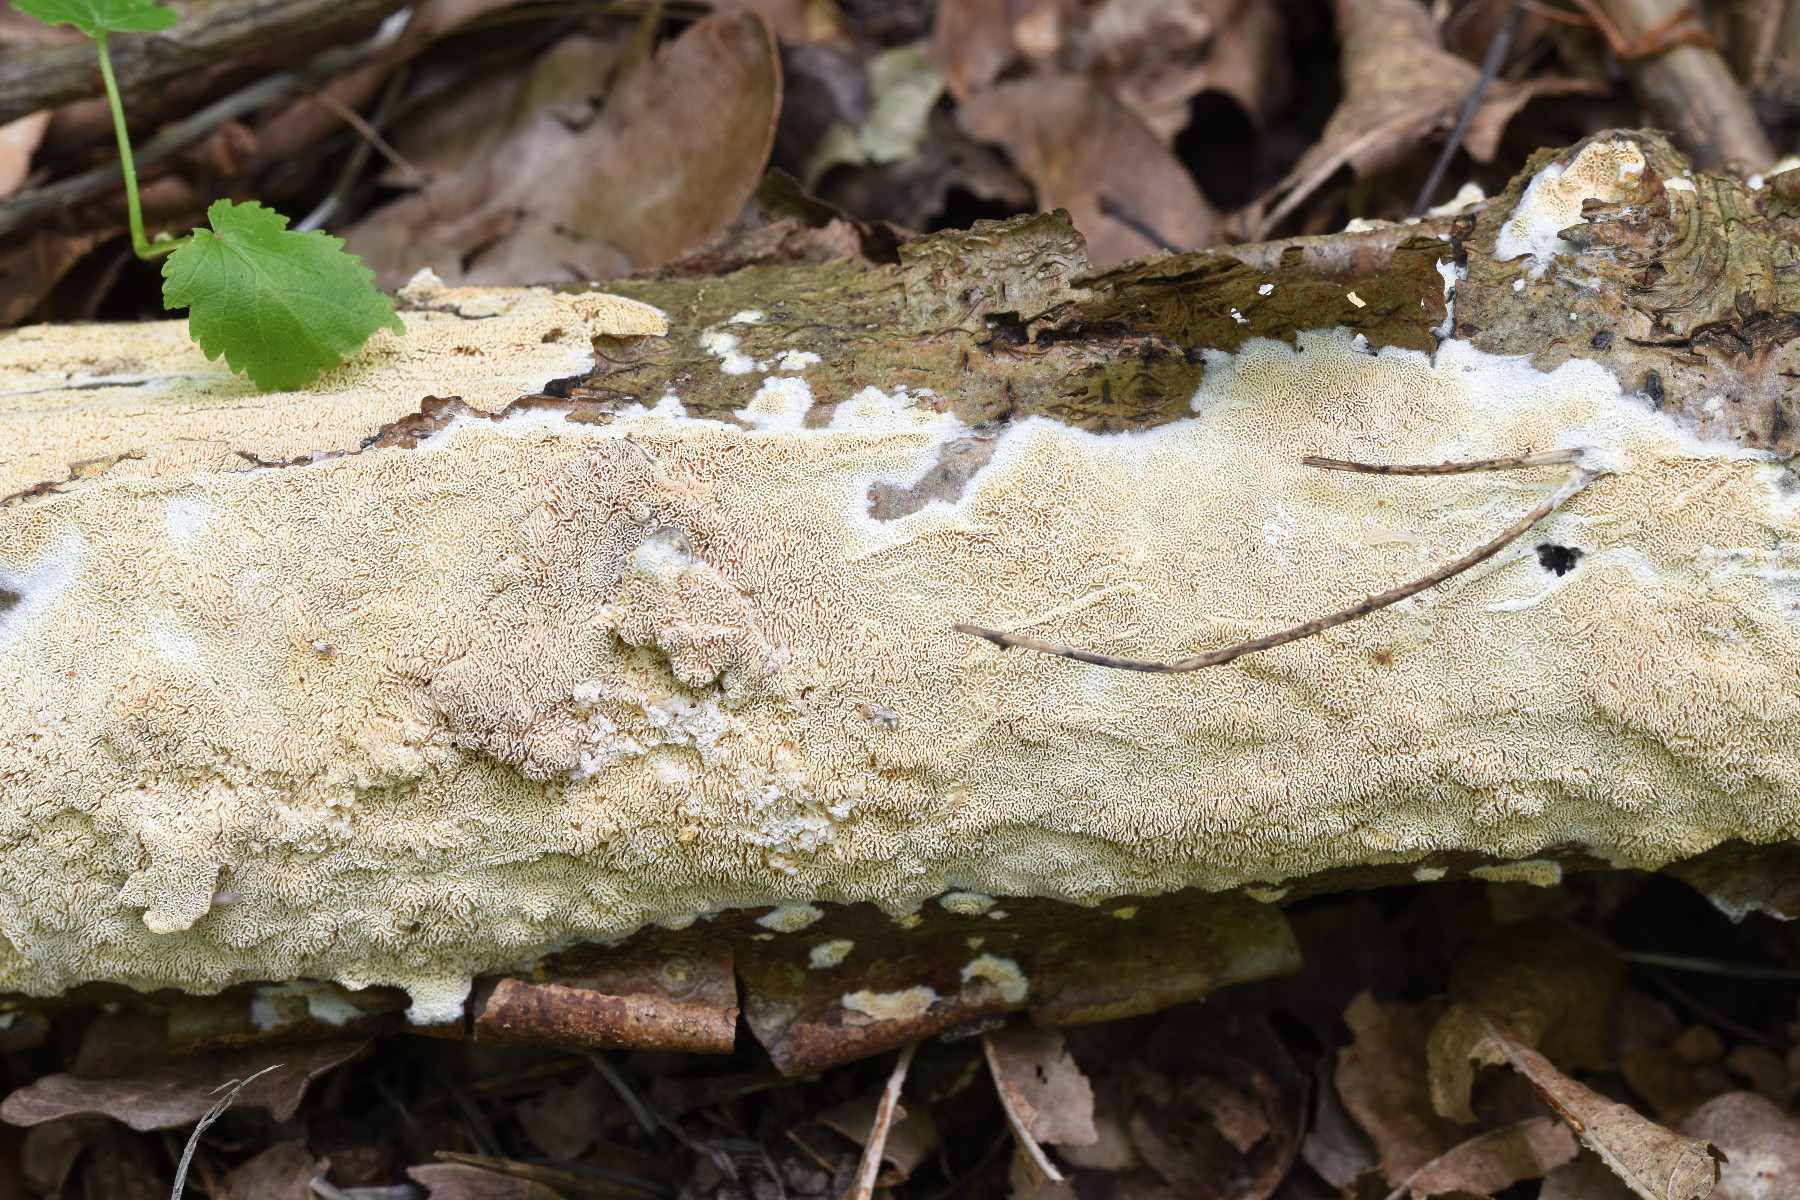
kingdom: Fungi
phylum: Basidiomycota
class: Agaricomycetes
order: Hymenochaetales
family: Schizoporaceae
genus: Schizopora
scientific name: Schizopora paradoxa
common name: hvid tandsvamp
